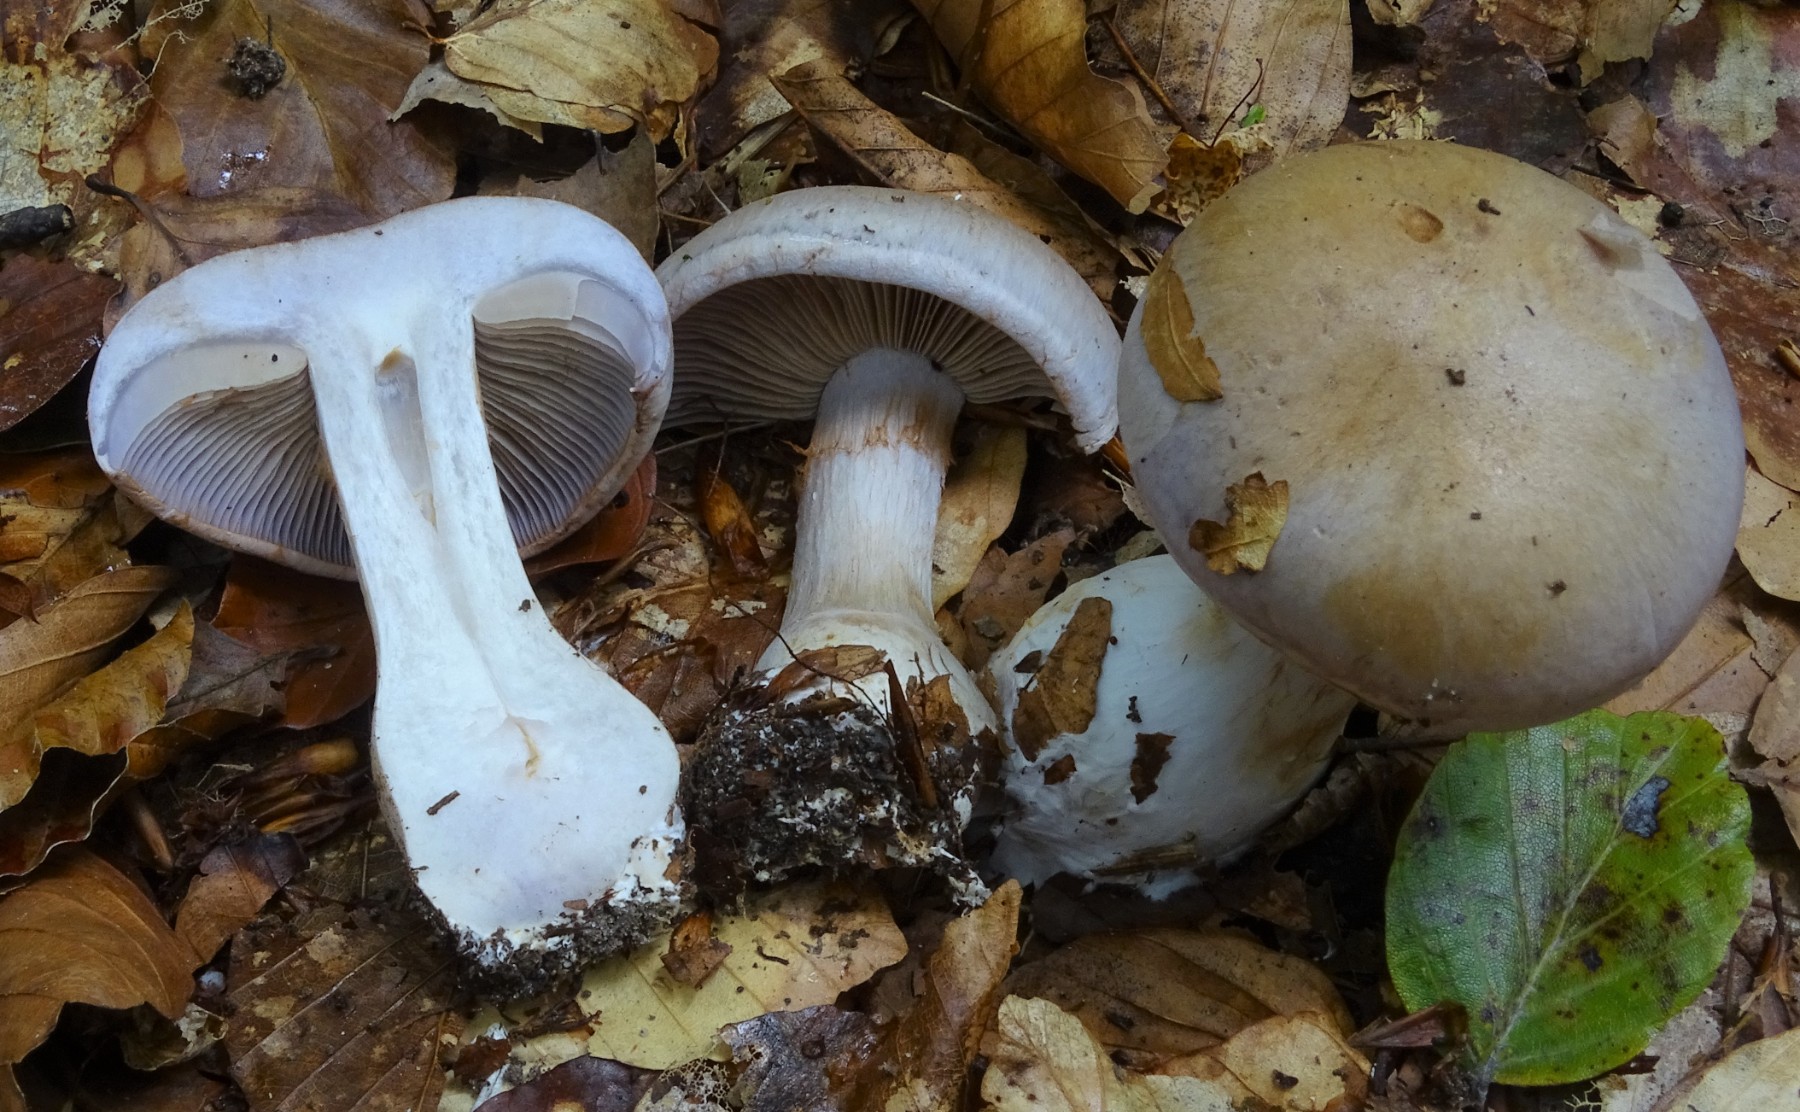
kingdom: Fungi
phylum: Basidiomycota
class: Agaricomycetes
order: Agaricales
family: Cortinariaceae
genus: Cortinarius
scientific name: Cortinarius largus
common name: violetrandet slørhat
